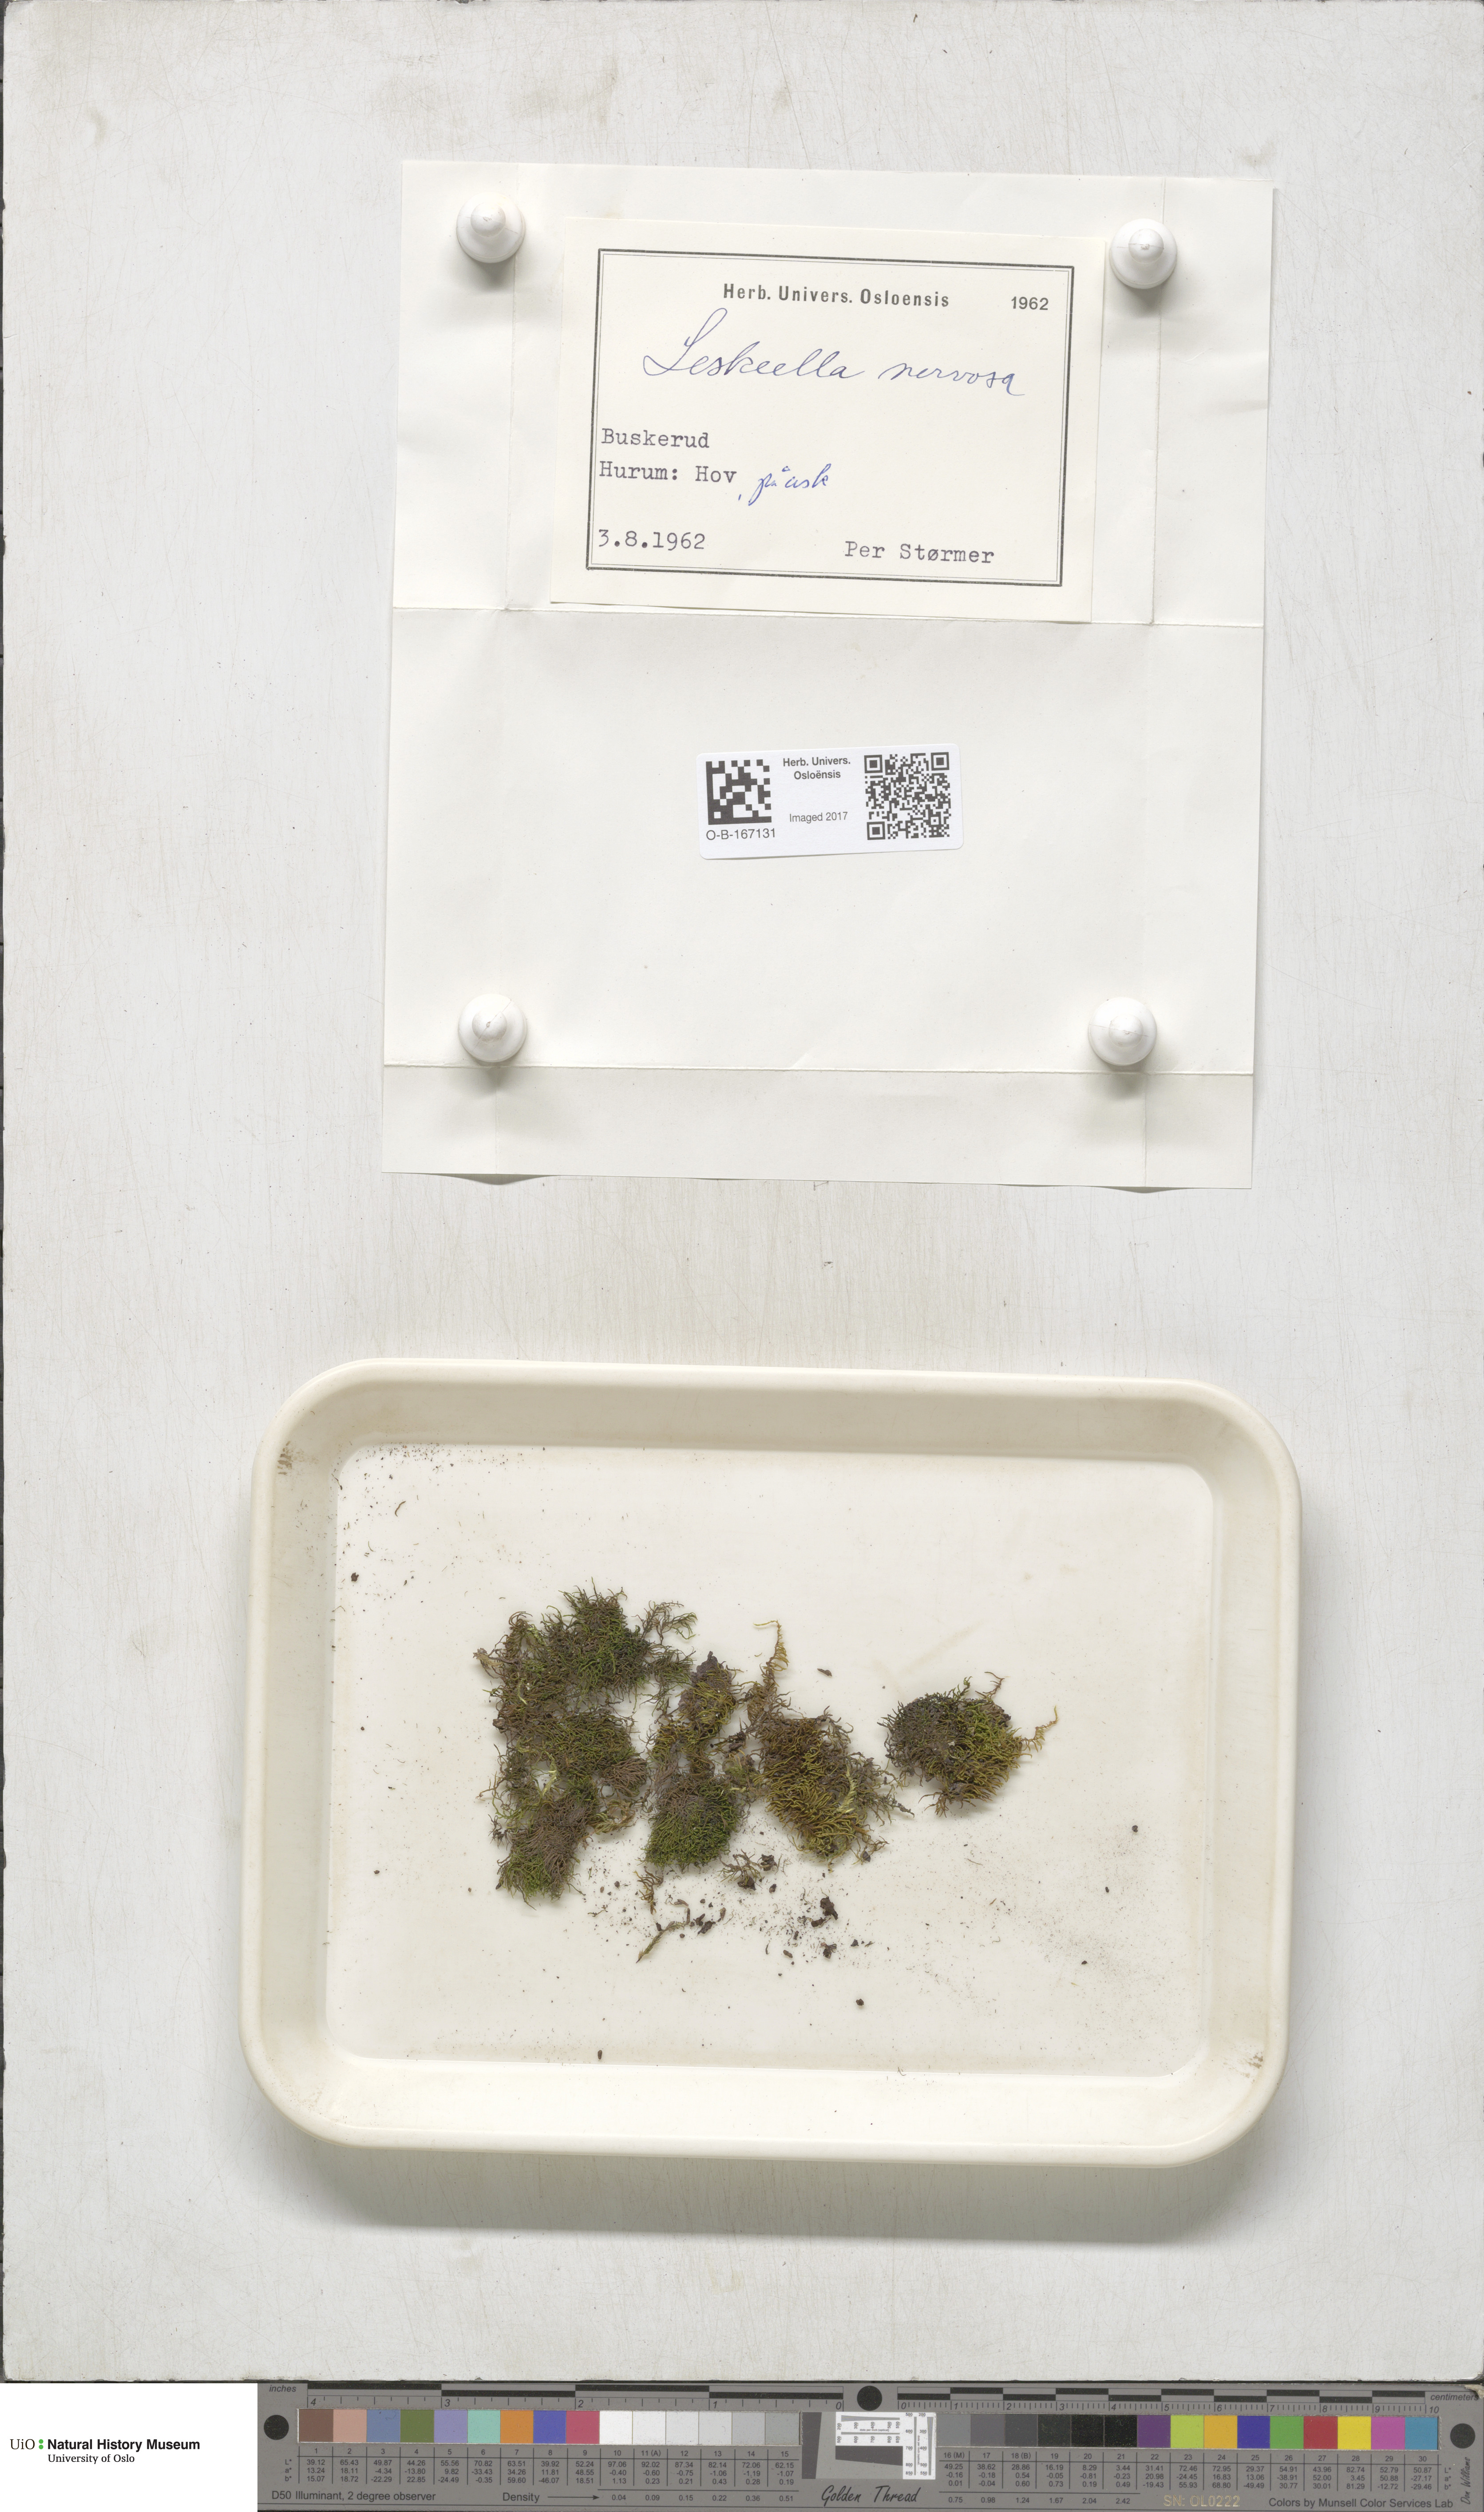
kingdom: Plantae
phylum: Bryophyta
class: Bryopsida
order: Hypnales
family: Pseudoleskeellaceae
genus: Pseudoleskeella
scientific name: Pseudoleskeella nervosa
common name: Nerved leske's moss
